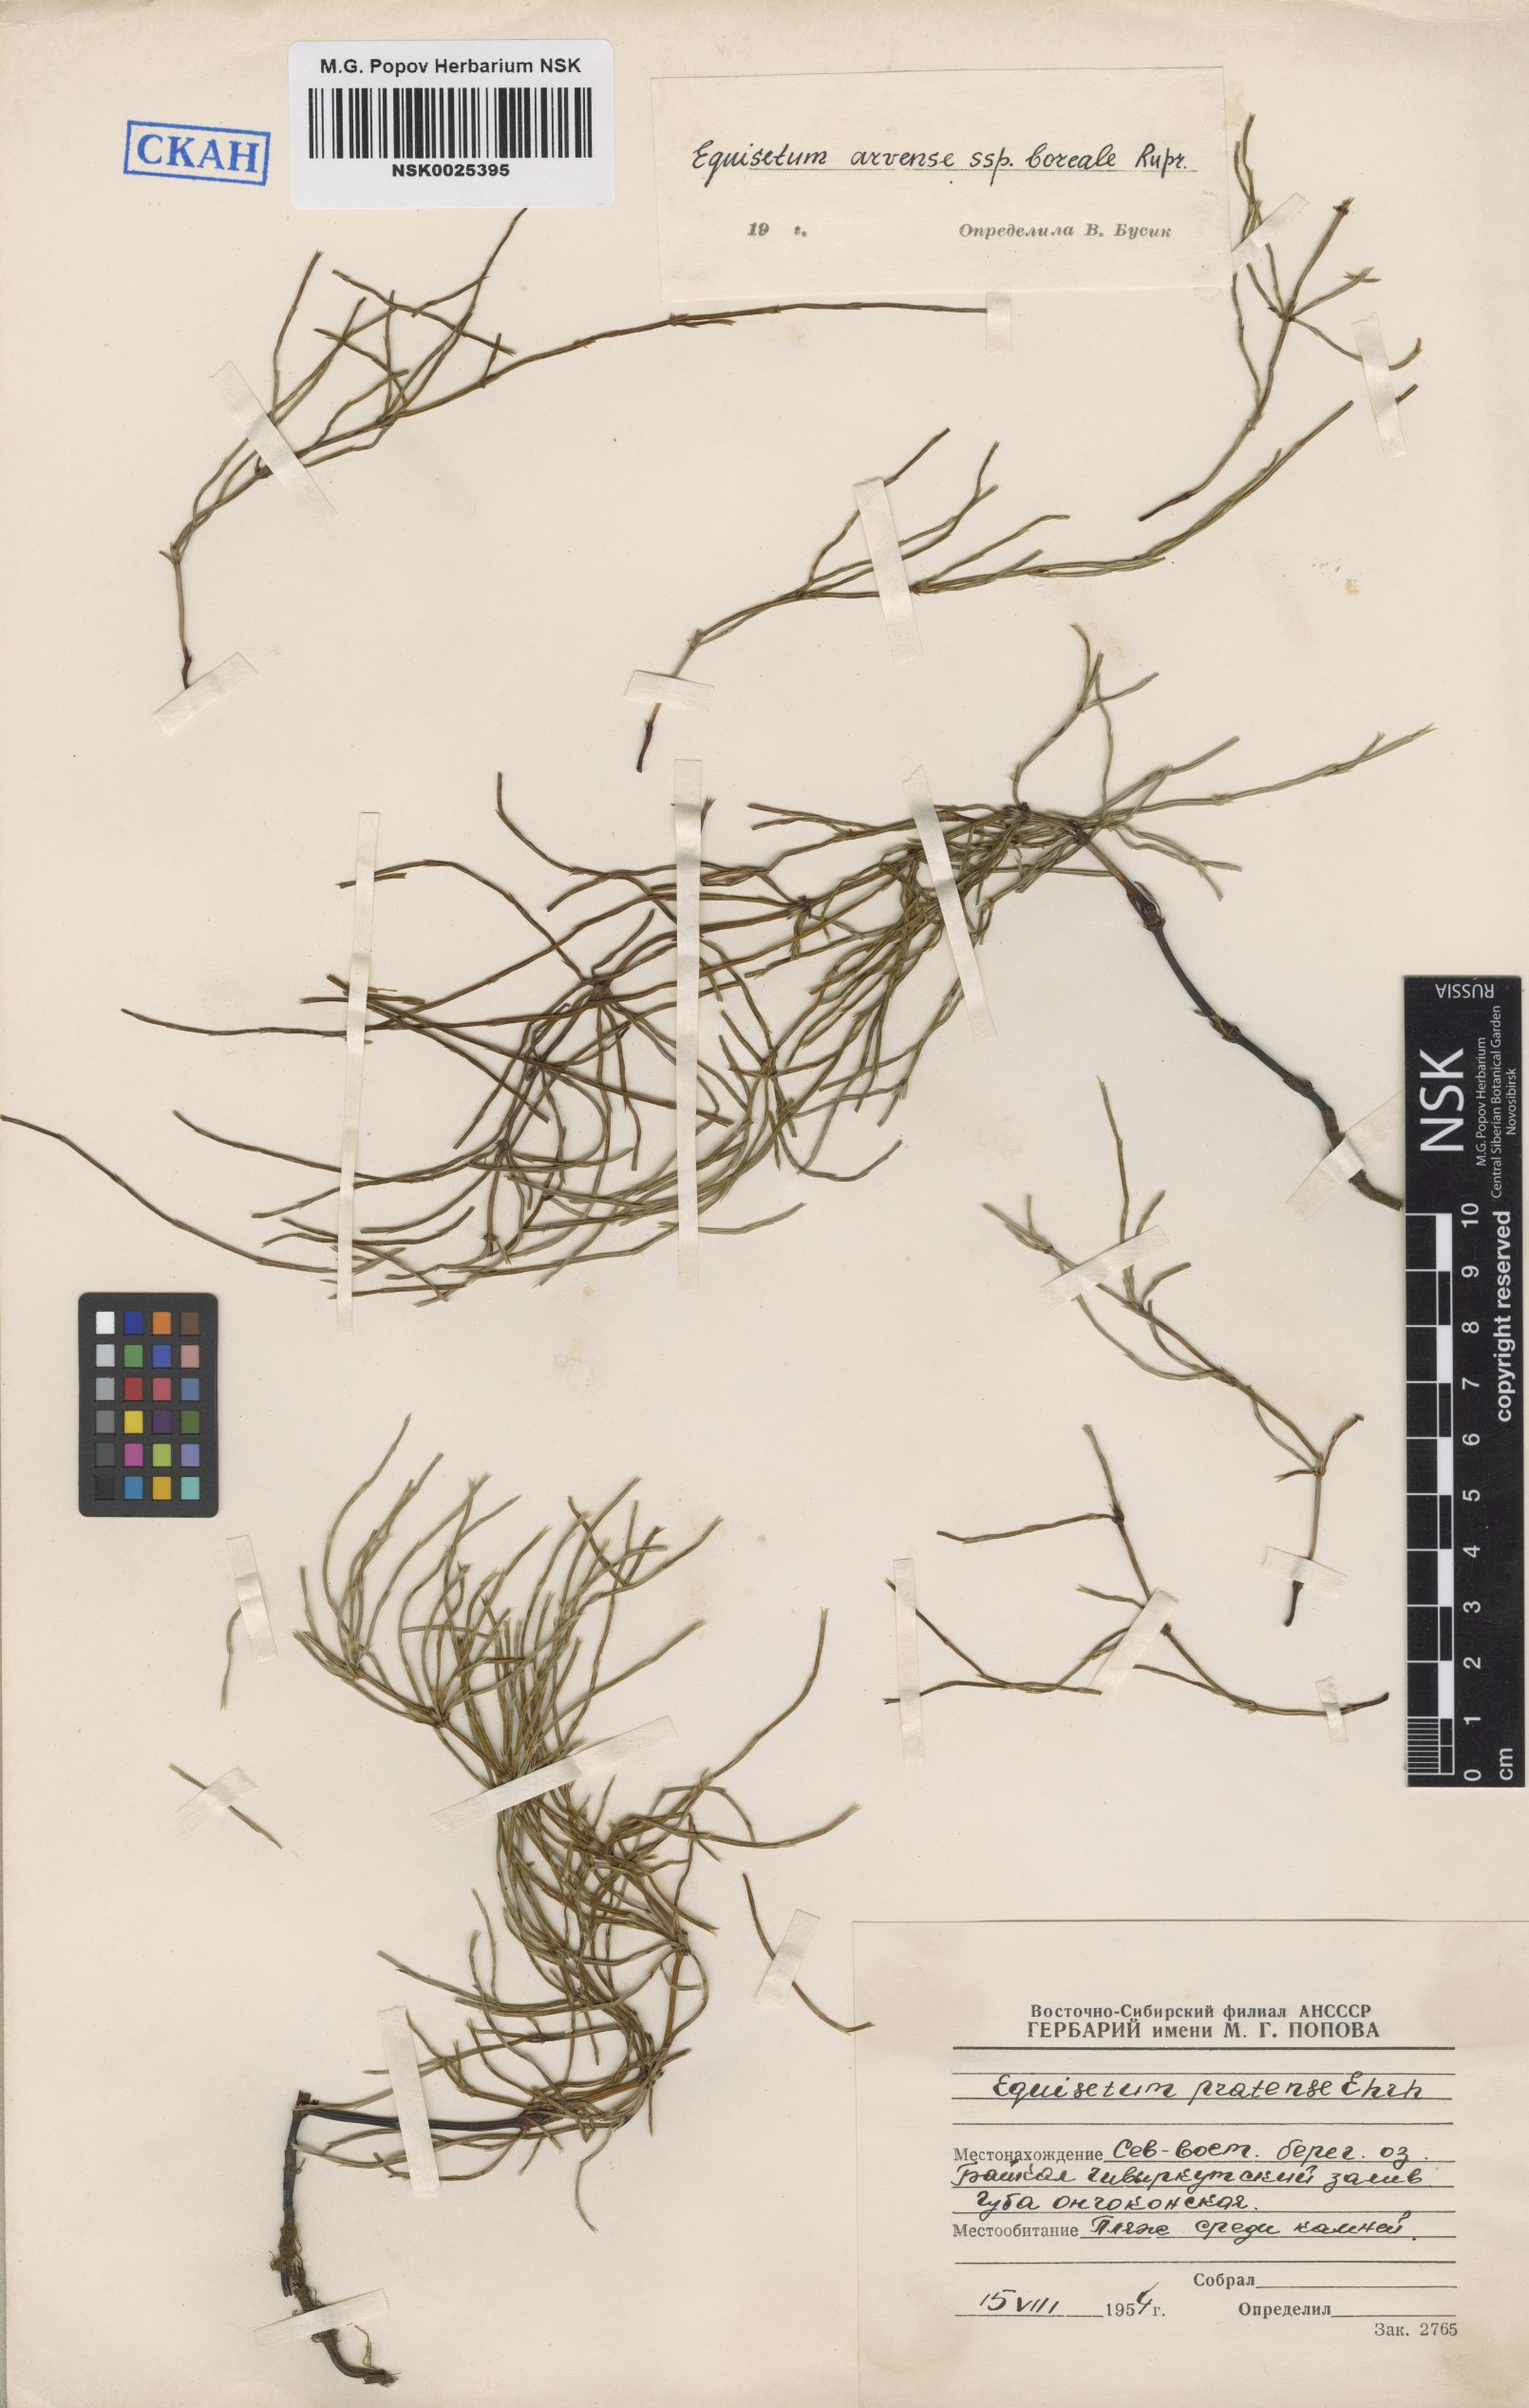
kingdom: Plantae
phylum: Tracheophyta
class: Polypodiopsida
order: Equisetales
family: Equisetaceae
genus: Equisetum
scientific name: Equisetum arvense
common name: Field horsetail
